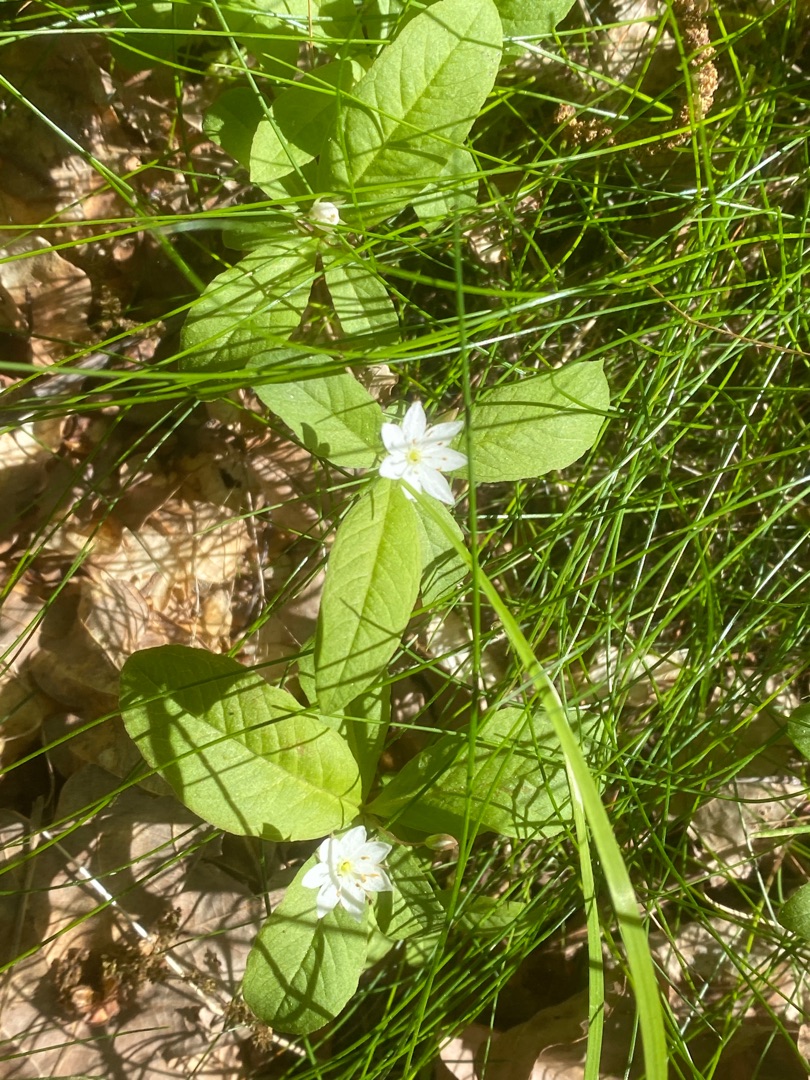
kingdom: Plantae
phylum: Tracheophyta
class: Magnoliopsida
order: Ericales
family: Primulaceae
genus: Lysimachia
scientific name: Lysimachia europaea
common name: Skovstjerne
